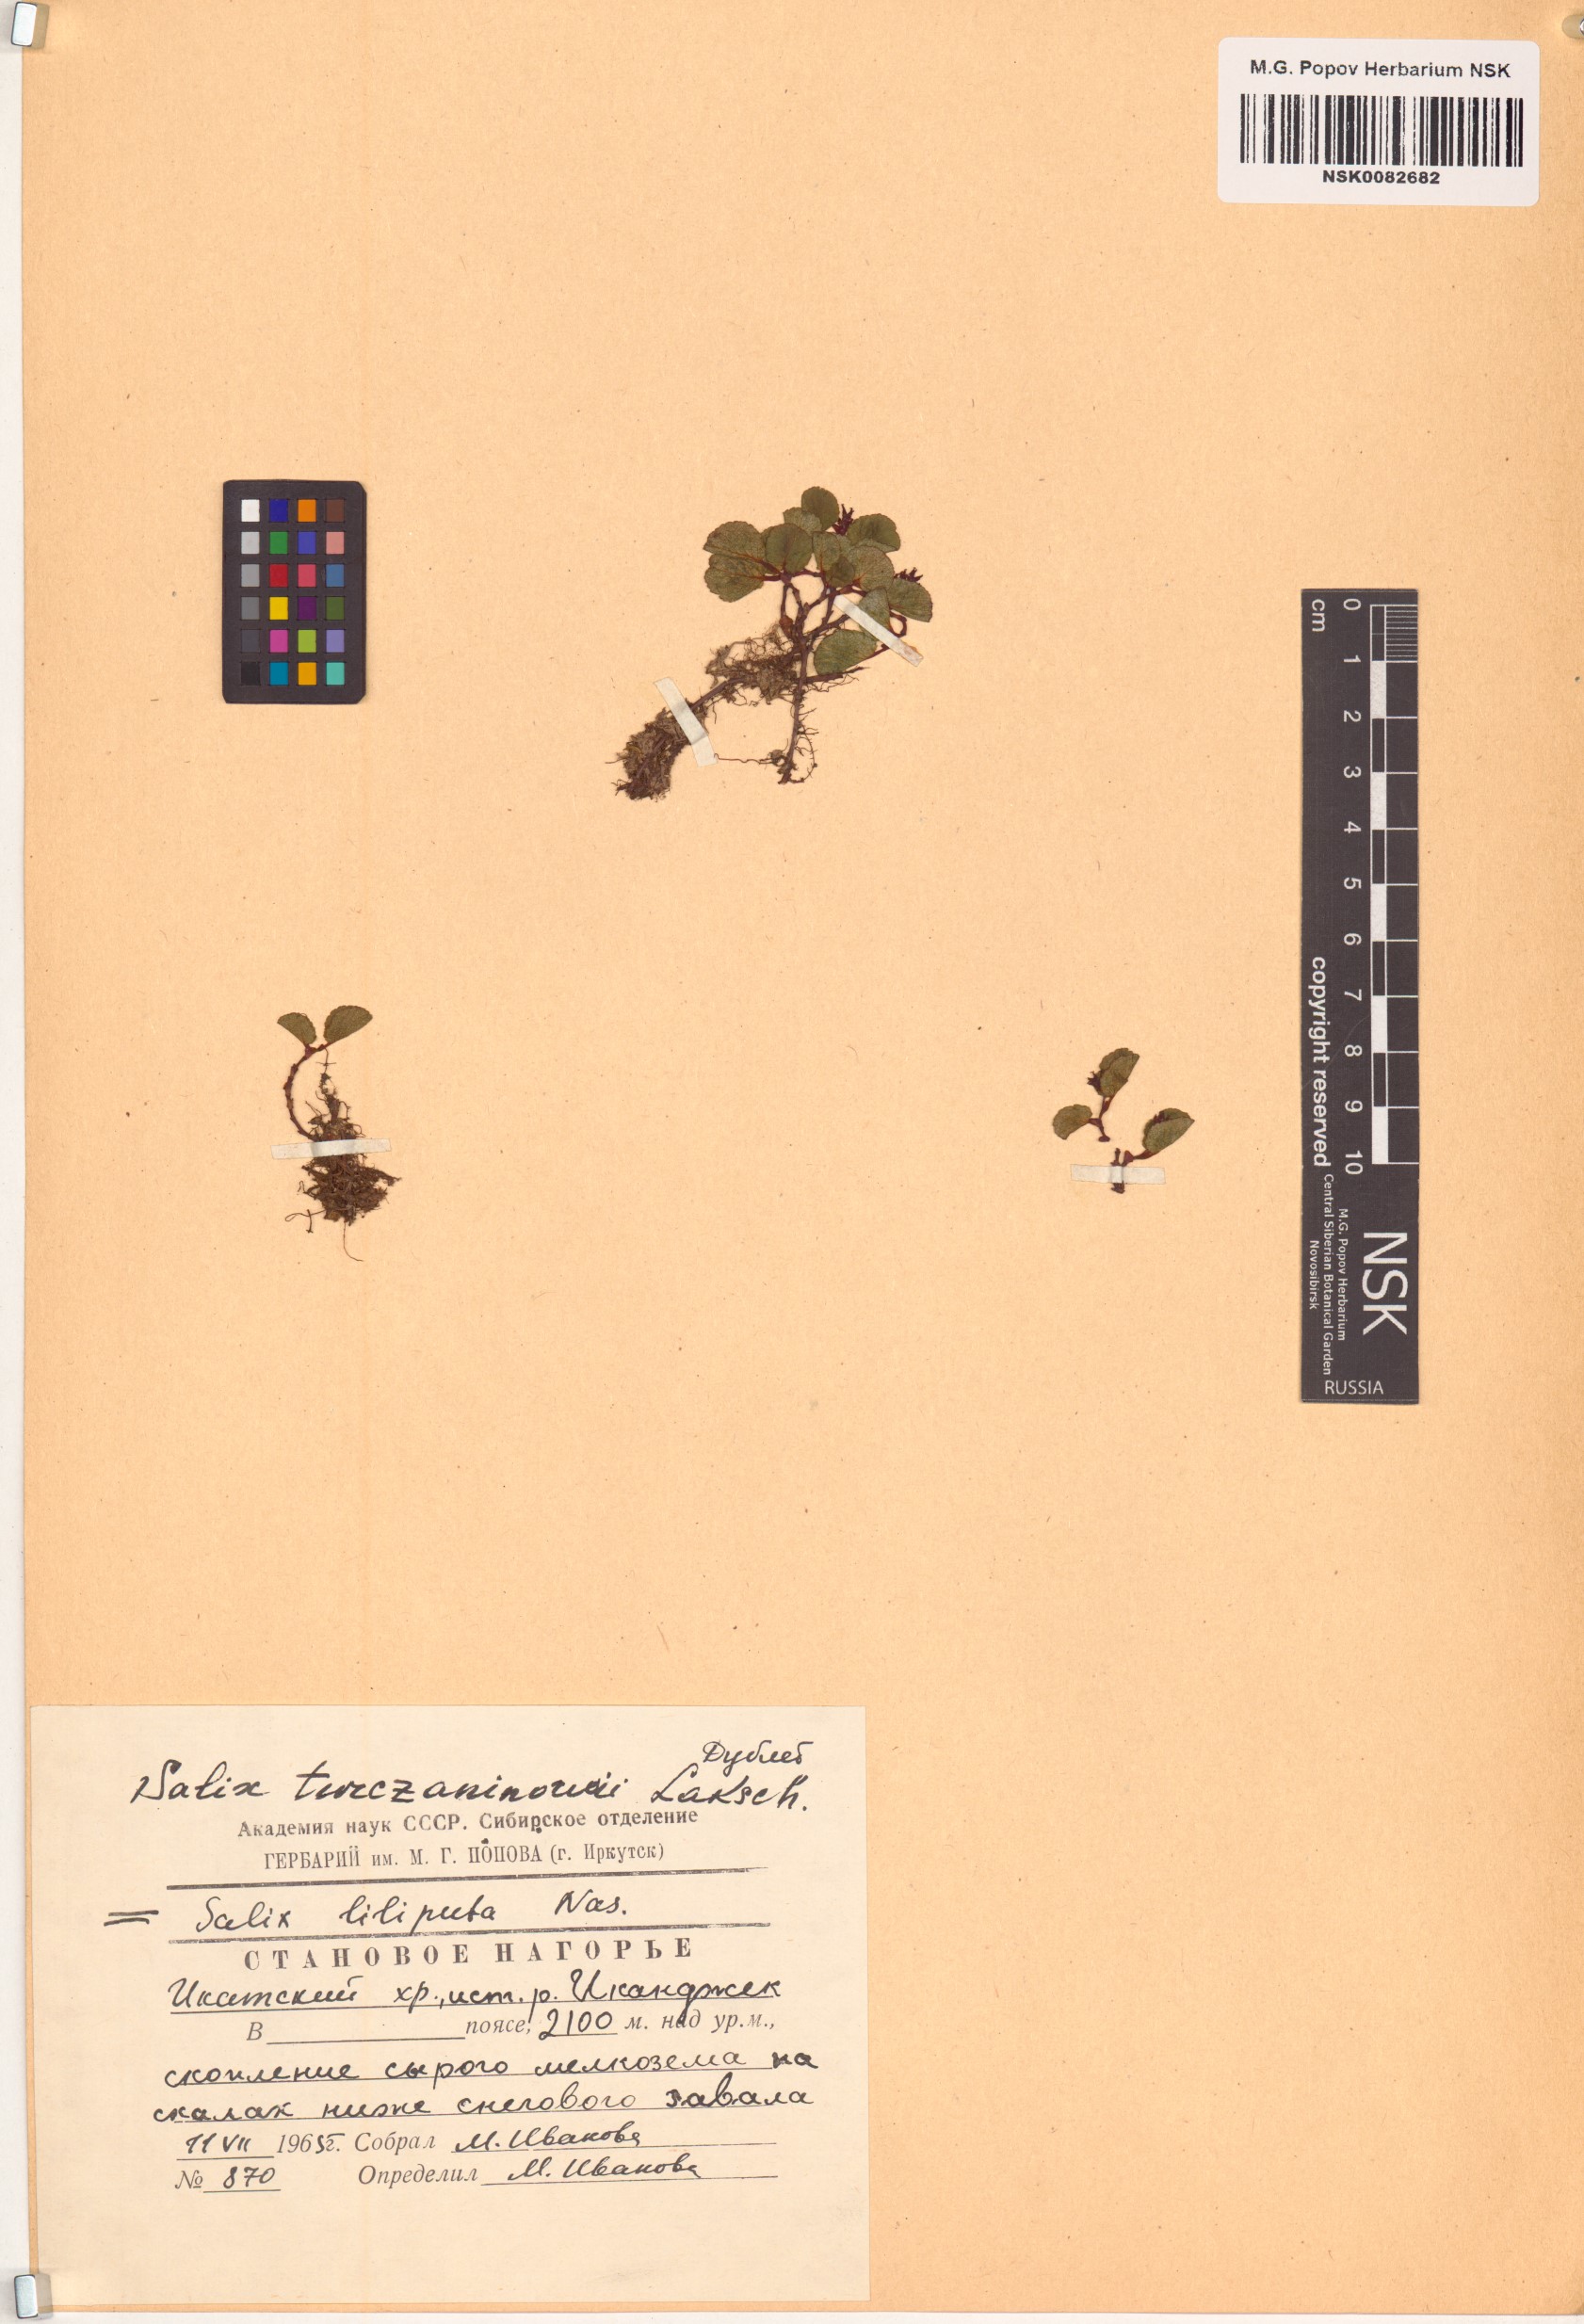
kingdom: Plantae
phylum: Tracheophyta
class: Magnoliopsida
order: Malpighiales
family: Salicaceae
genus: Salix
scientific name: Salix turczaninowii
